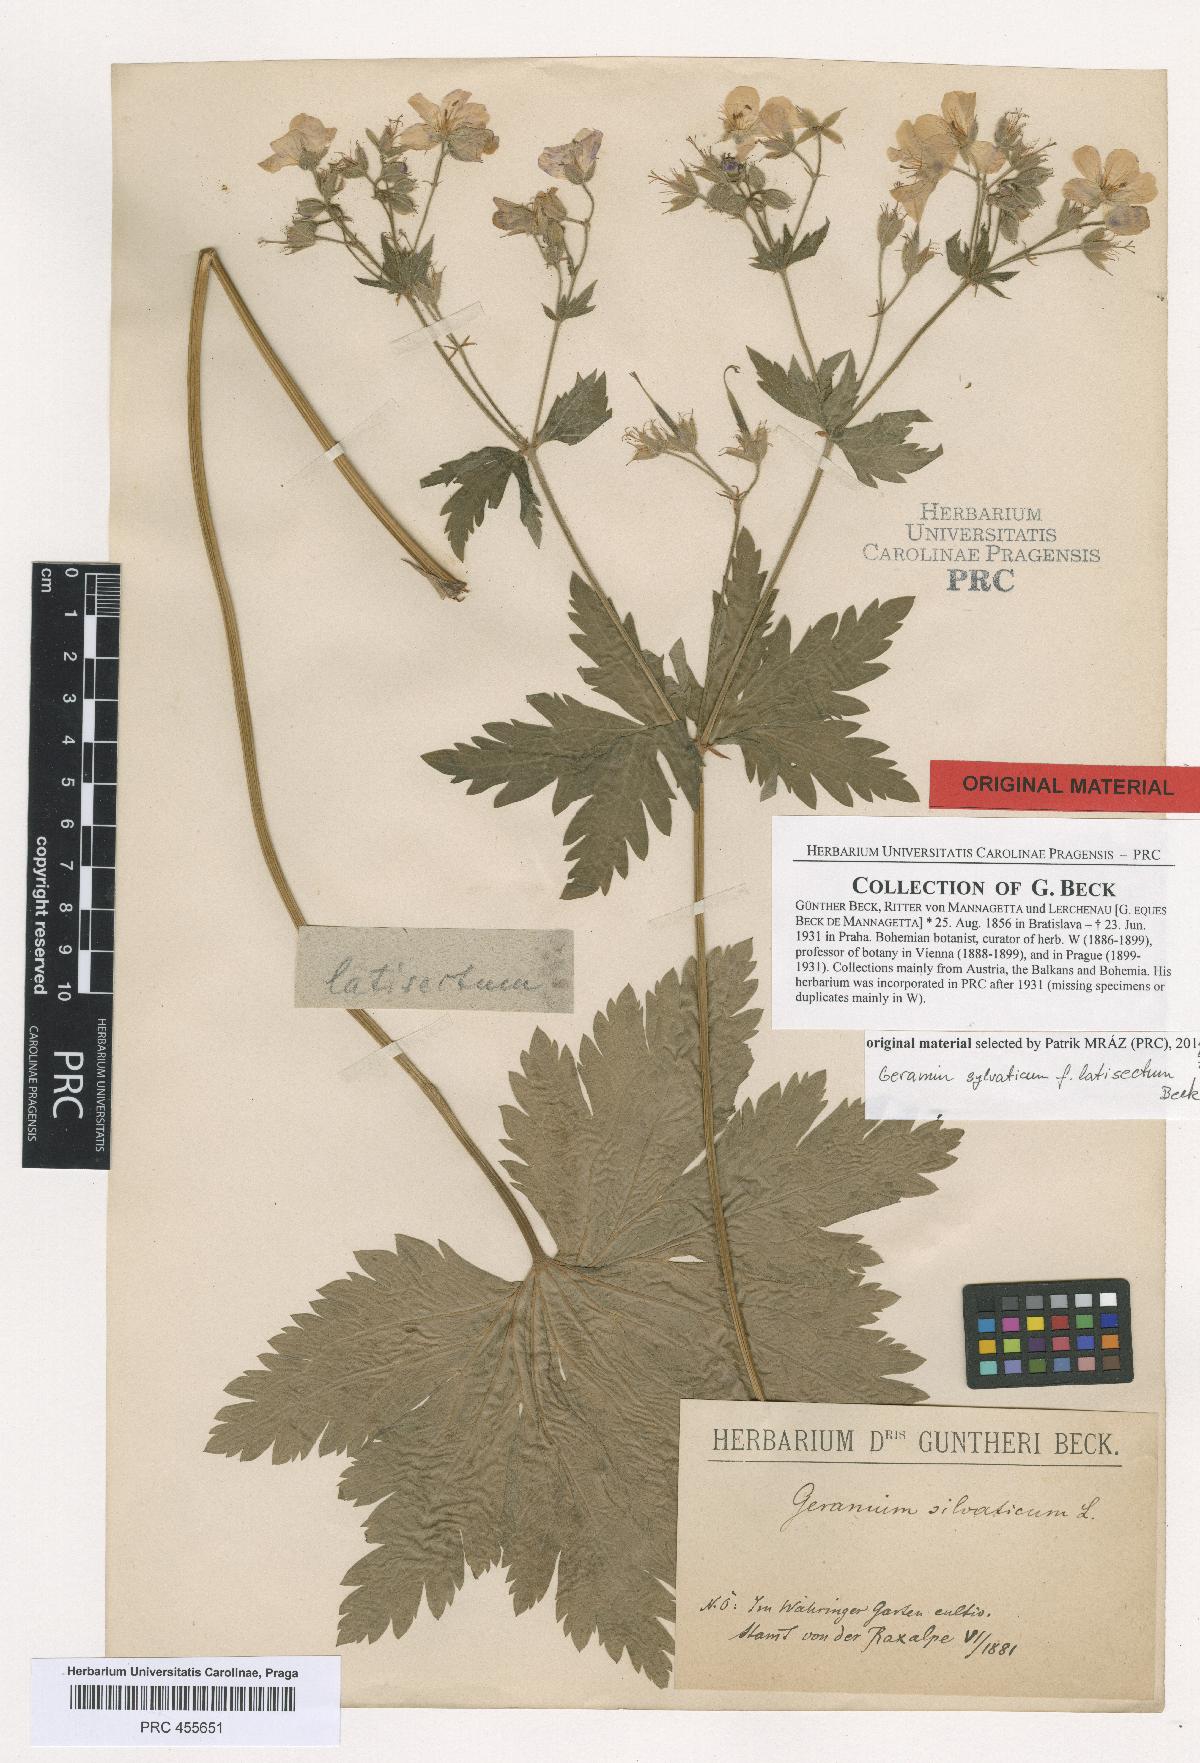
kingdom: Plantae
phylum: Tracheophyta
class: Magnoliopsida
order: Geraniales
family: Geraniaceae
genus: Geranium
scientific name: Geranium sylvaticum
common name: Wood crane's-bill
